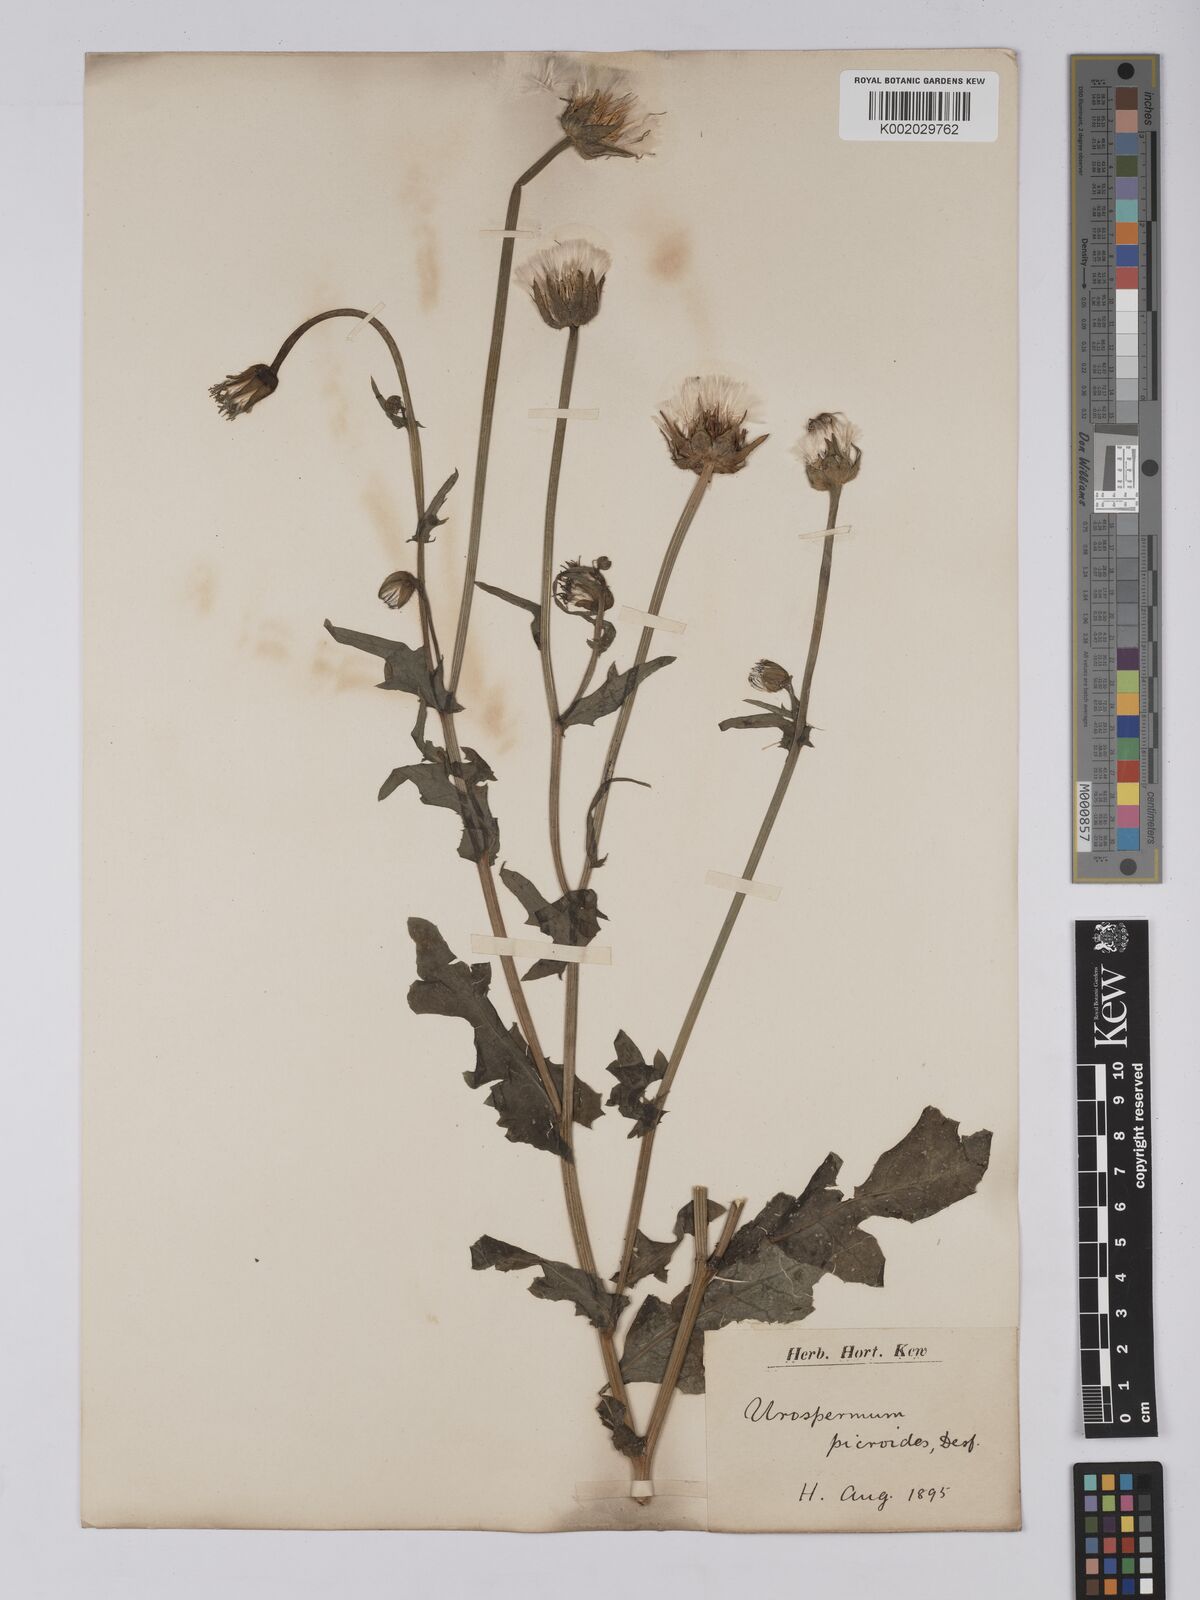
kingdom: Plantae
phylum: Tracheophyta
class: Magnoliopsida
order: Asterales
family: Asteraceae
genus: Urospermum
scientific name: Urospermum picroides
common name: False hawkbit
